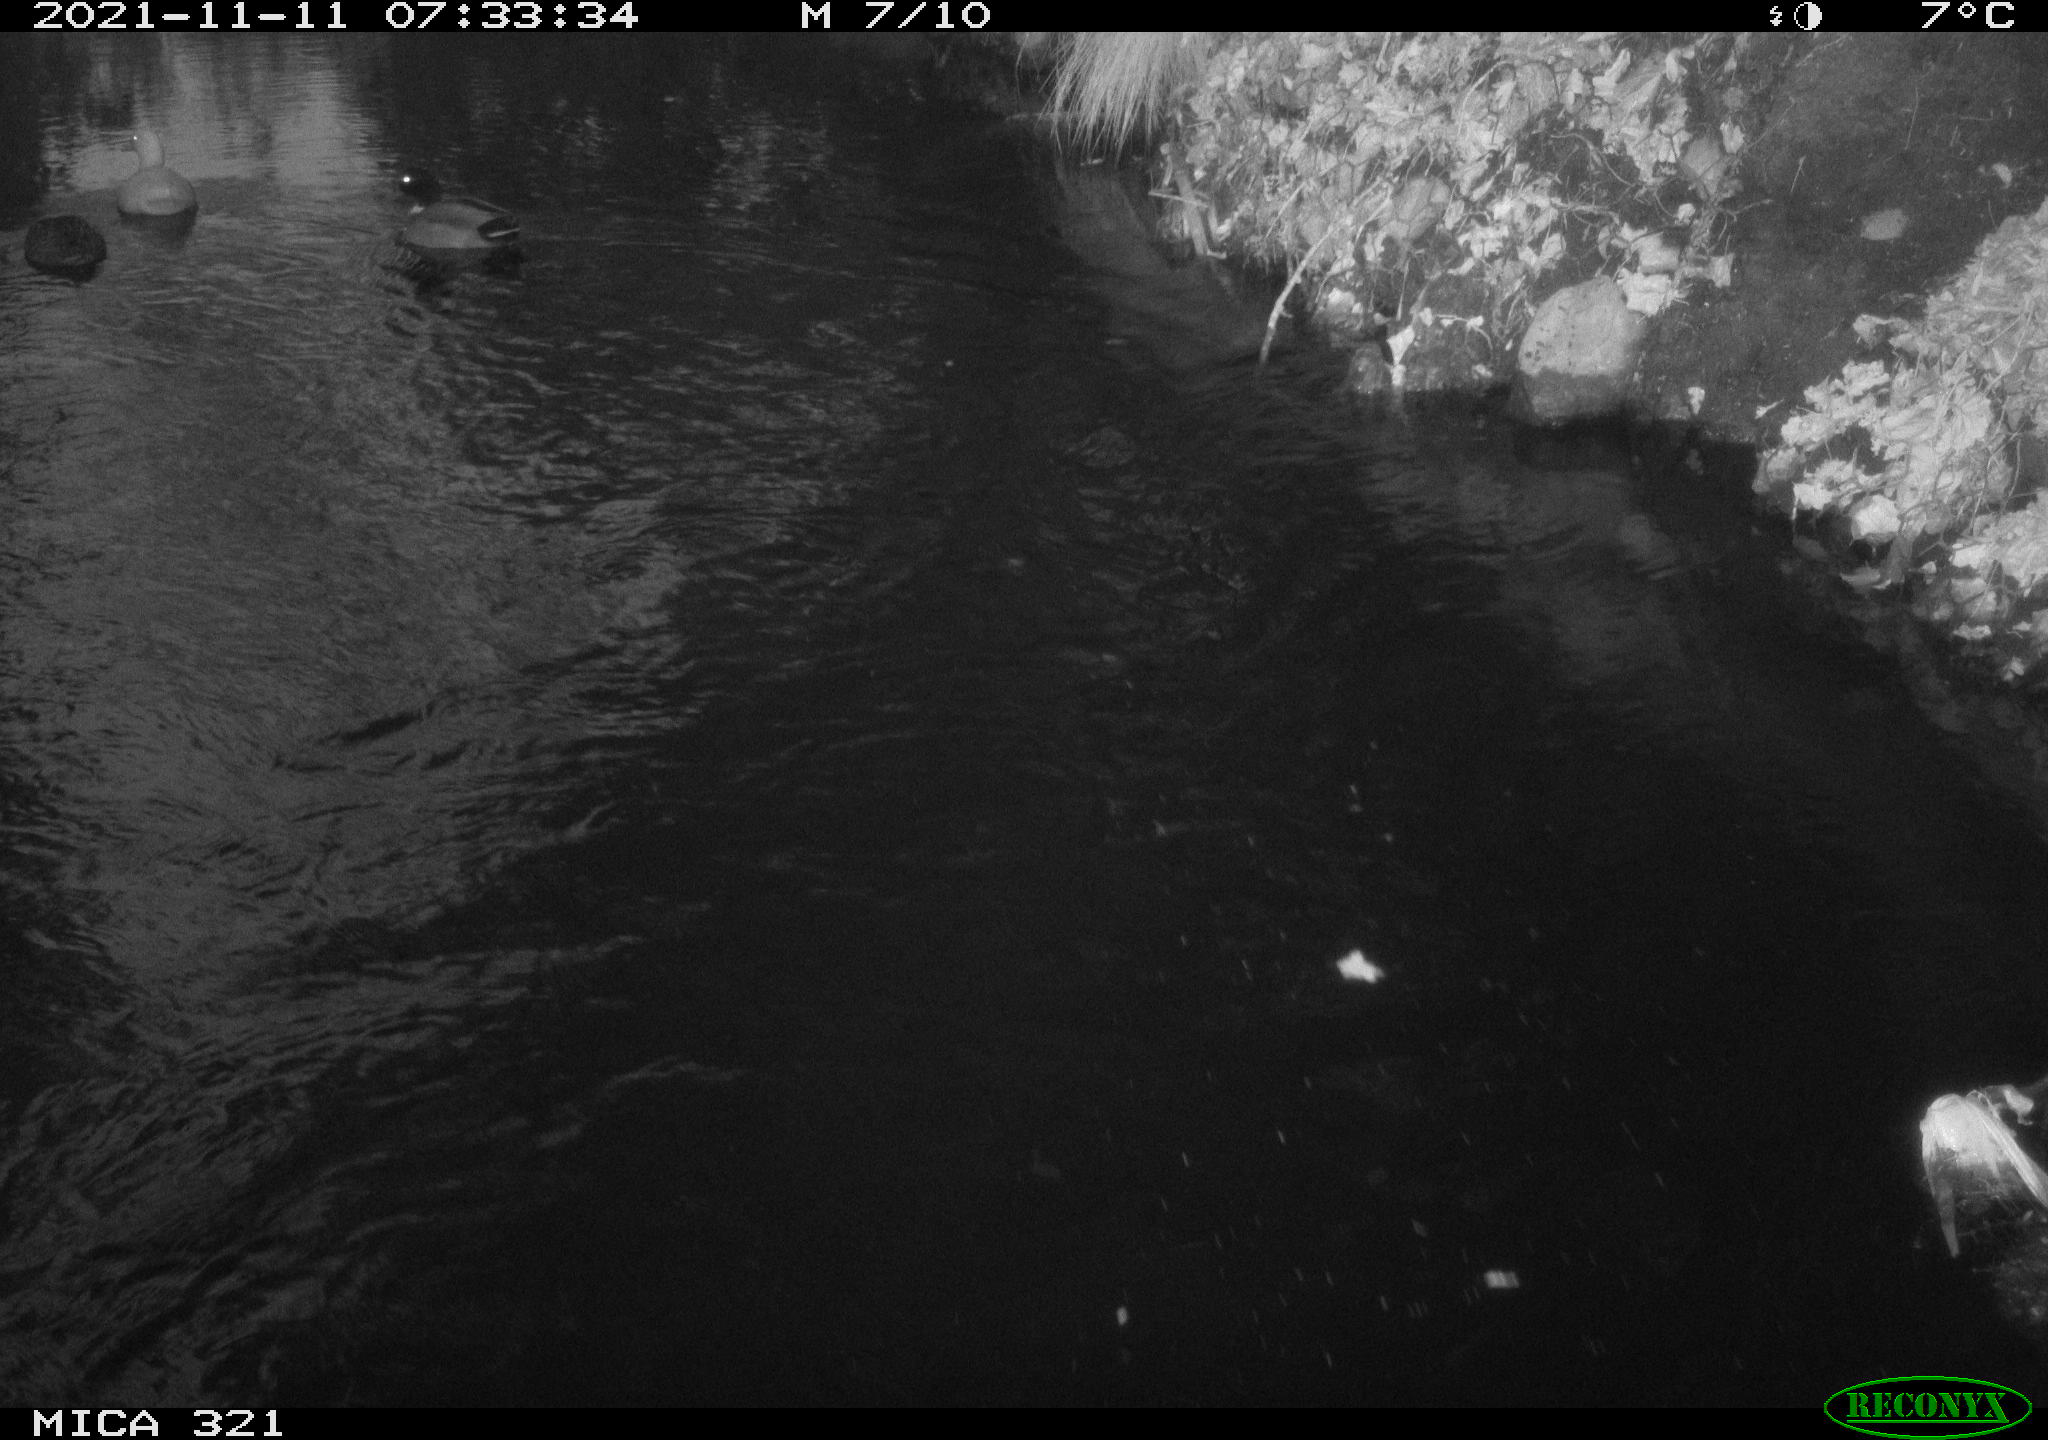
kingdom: Animalia
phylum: Chordata
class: Aves
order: Anseriformes
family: Anatidae
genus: Anas
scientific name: Anas platyrhynchos
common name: Mallard
